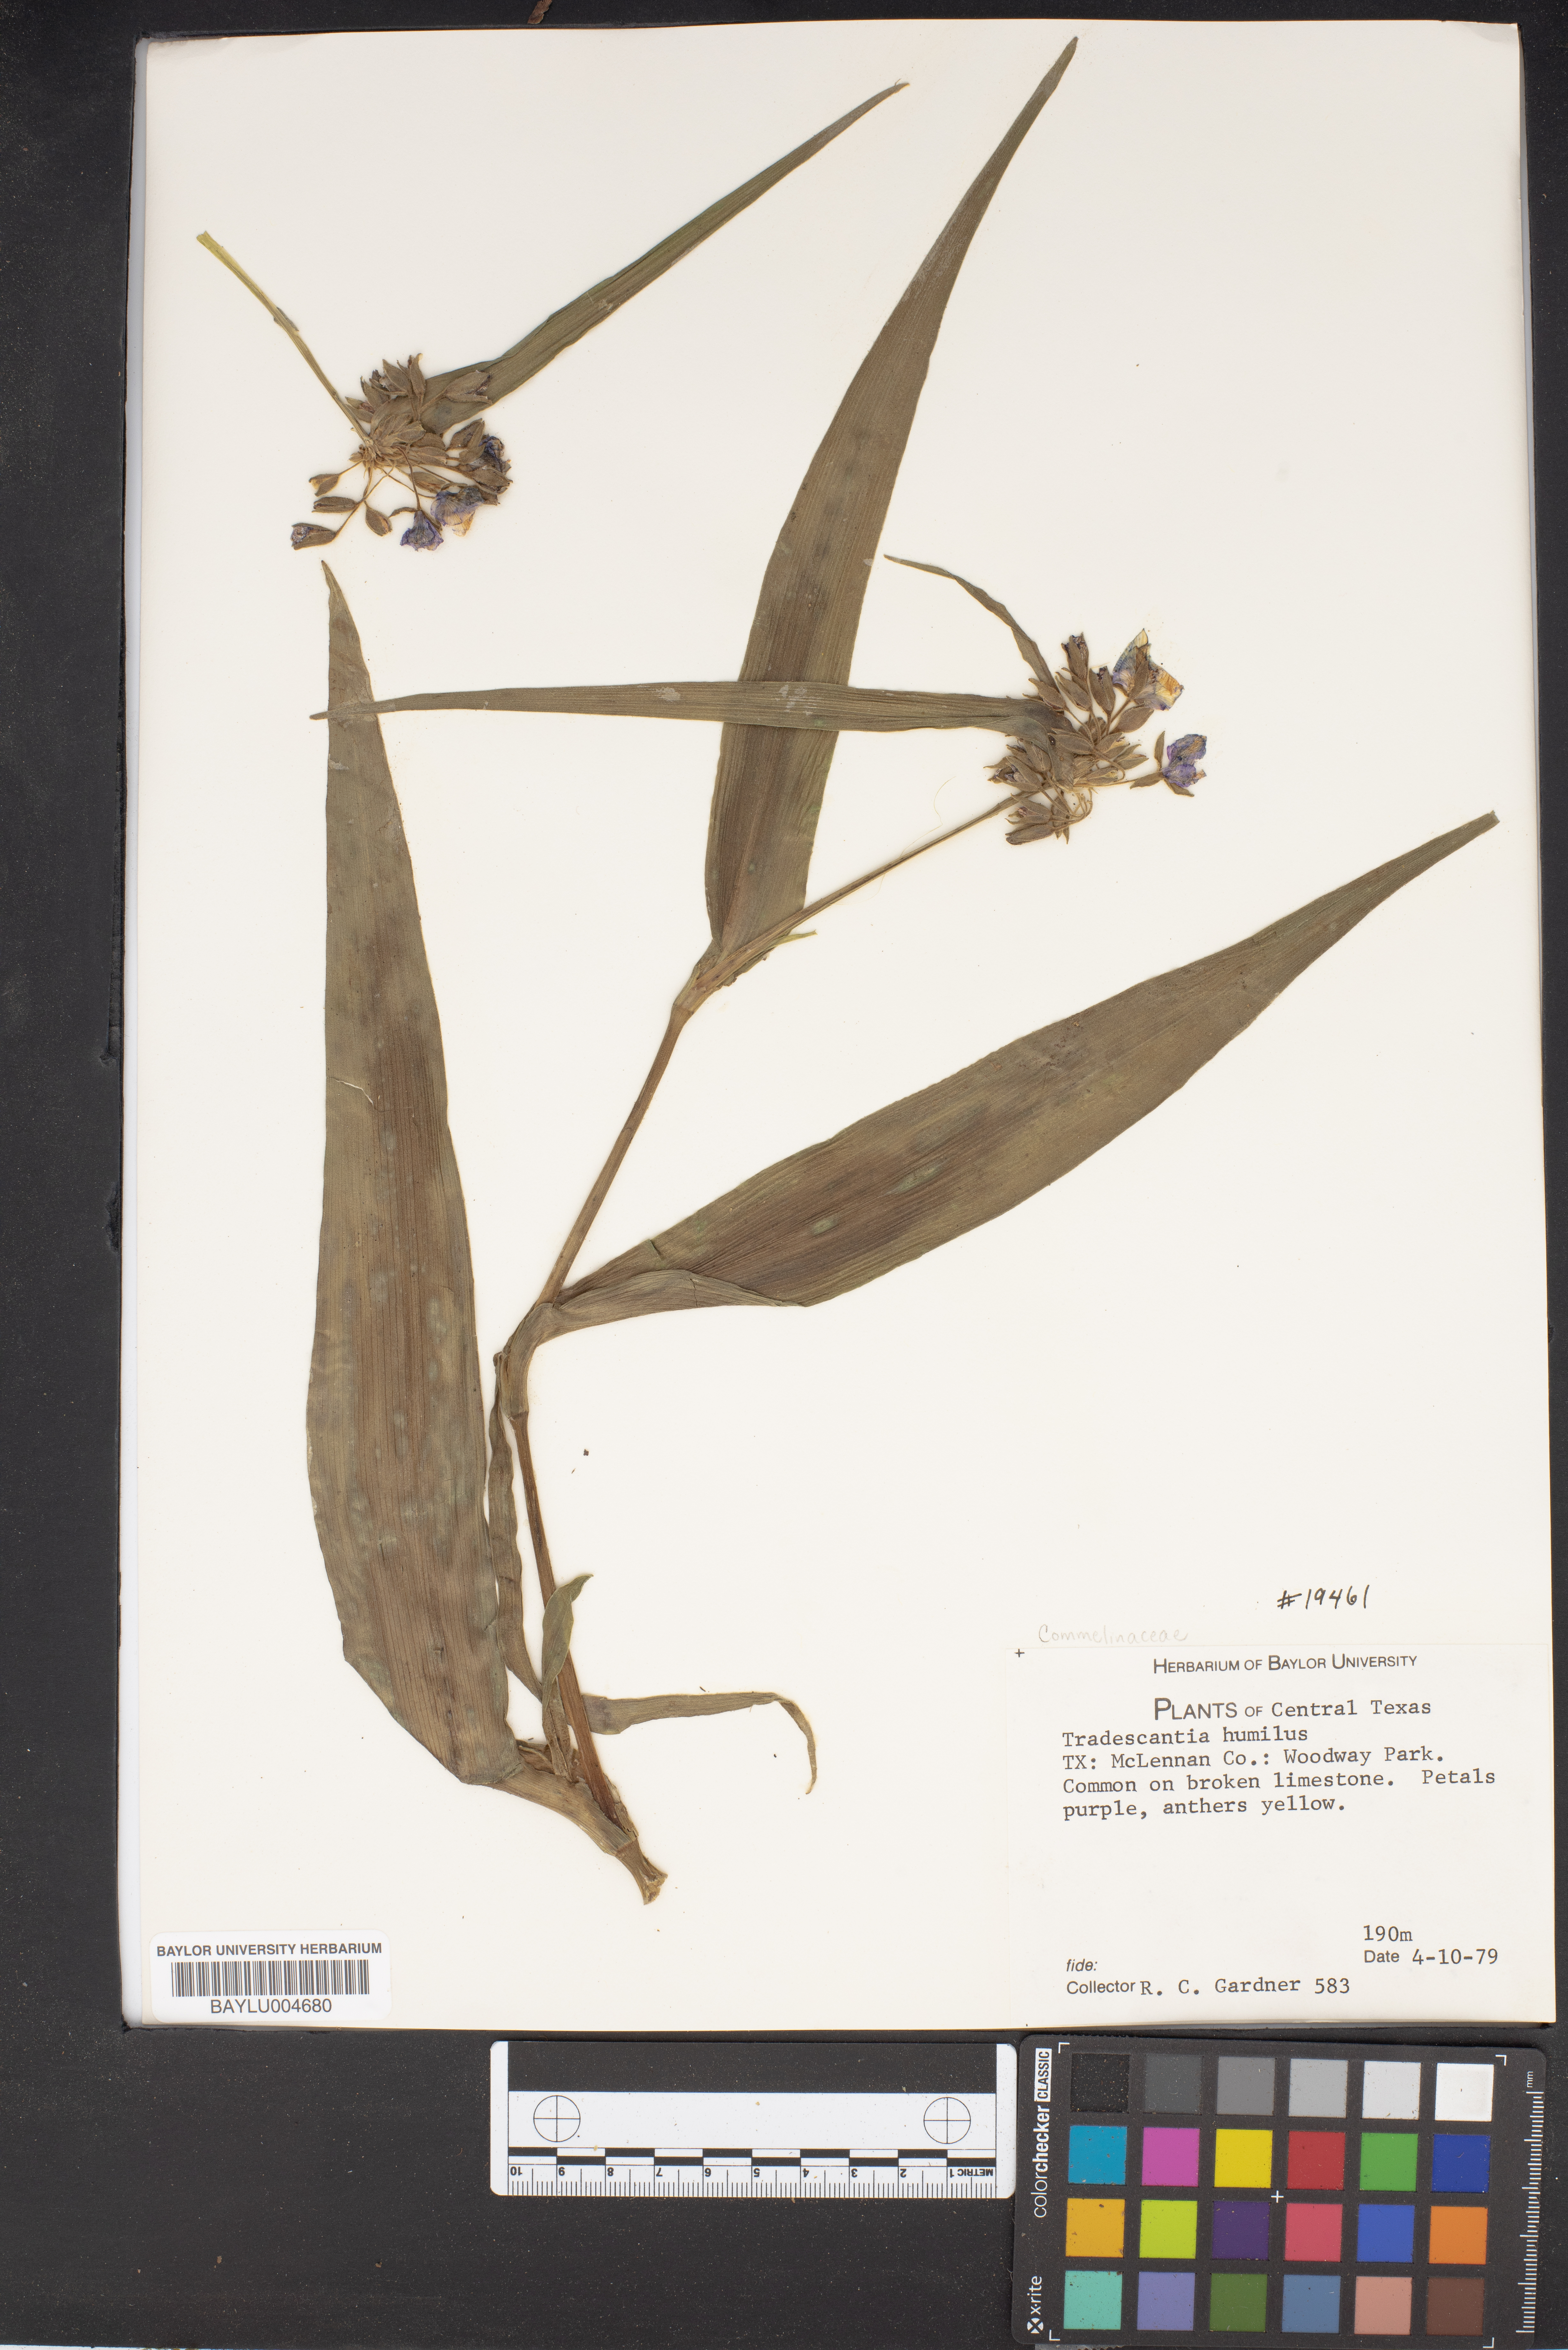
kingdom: Plantae
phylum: Tracheophyta
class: Liliopsida
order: Commelinales
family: Commelinaceae
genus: Tradescantia
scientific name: Tradescantia humilis
